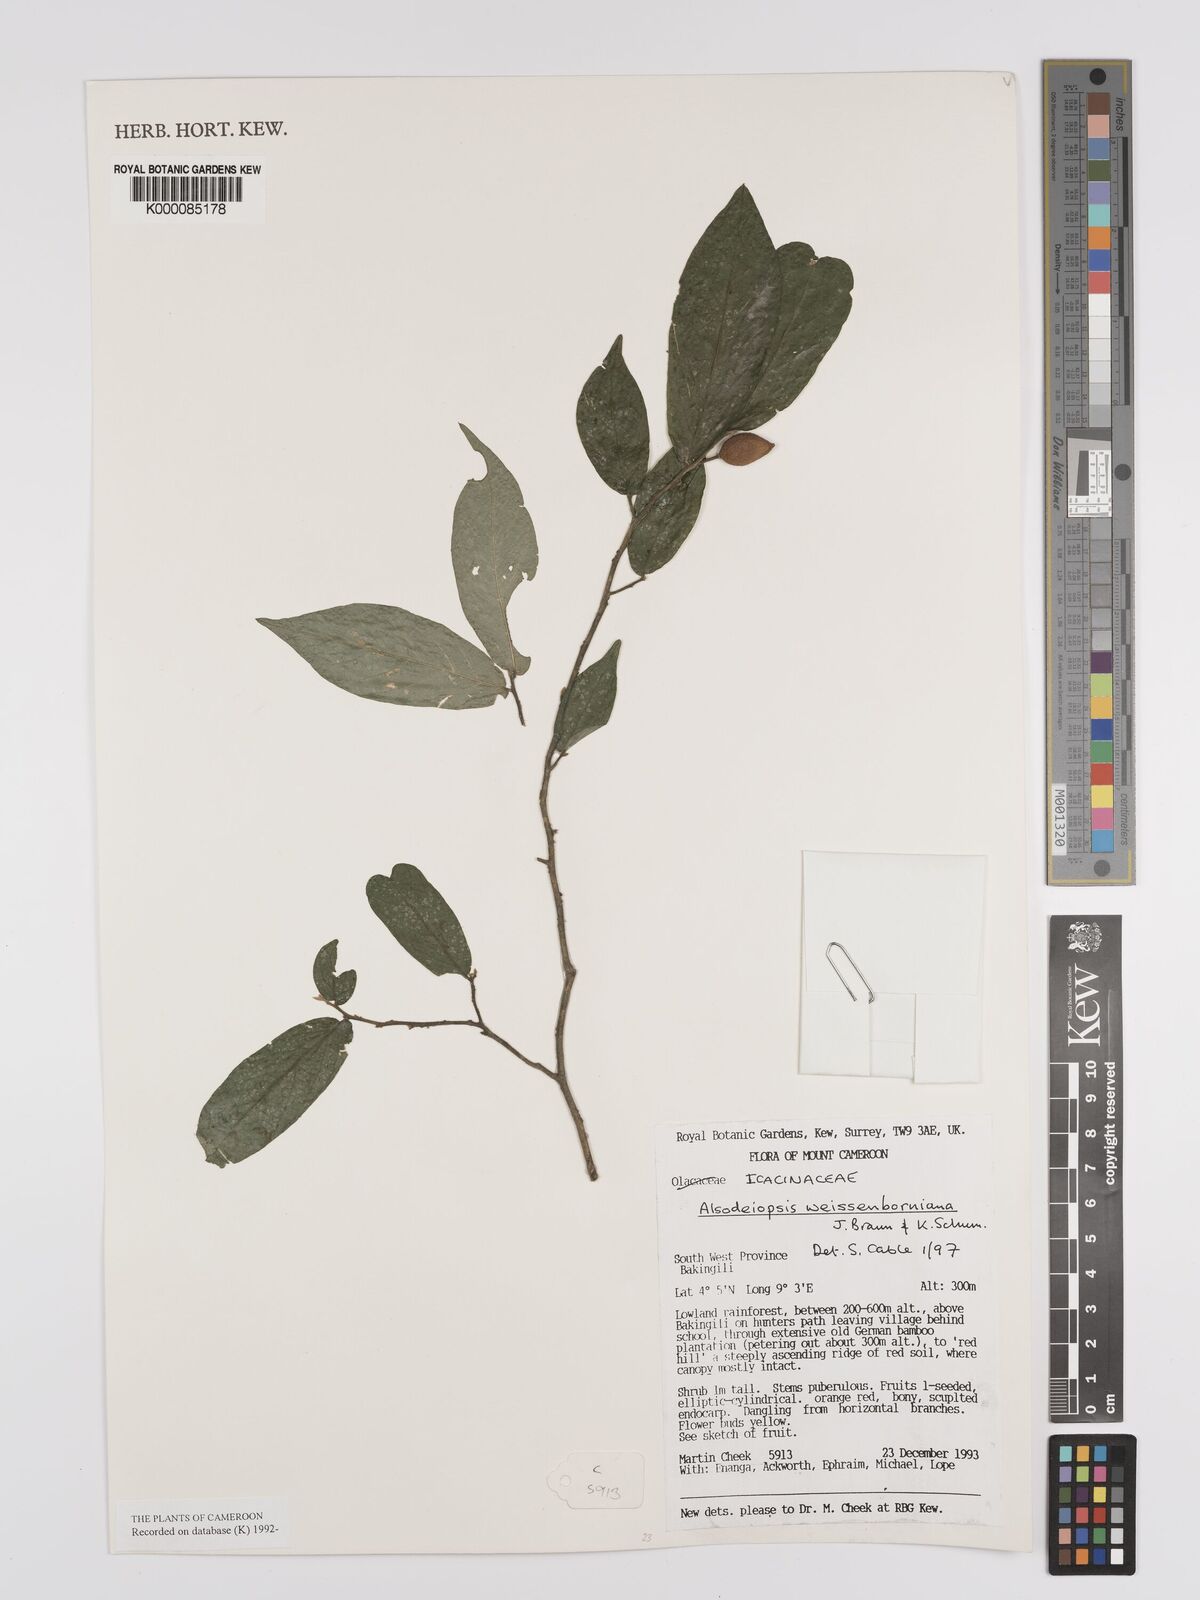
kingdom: Plantae
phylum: Tracheophyta
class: Magnoliopsida
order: Icacinales
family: Icacinaceae
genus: Alsodeiopsis
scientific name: Alsodeiopsis mannii
